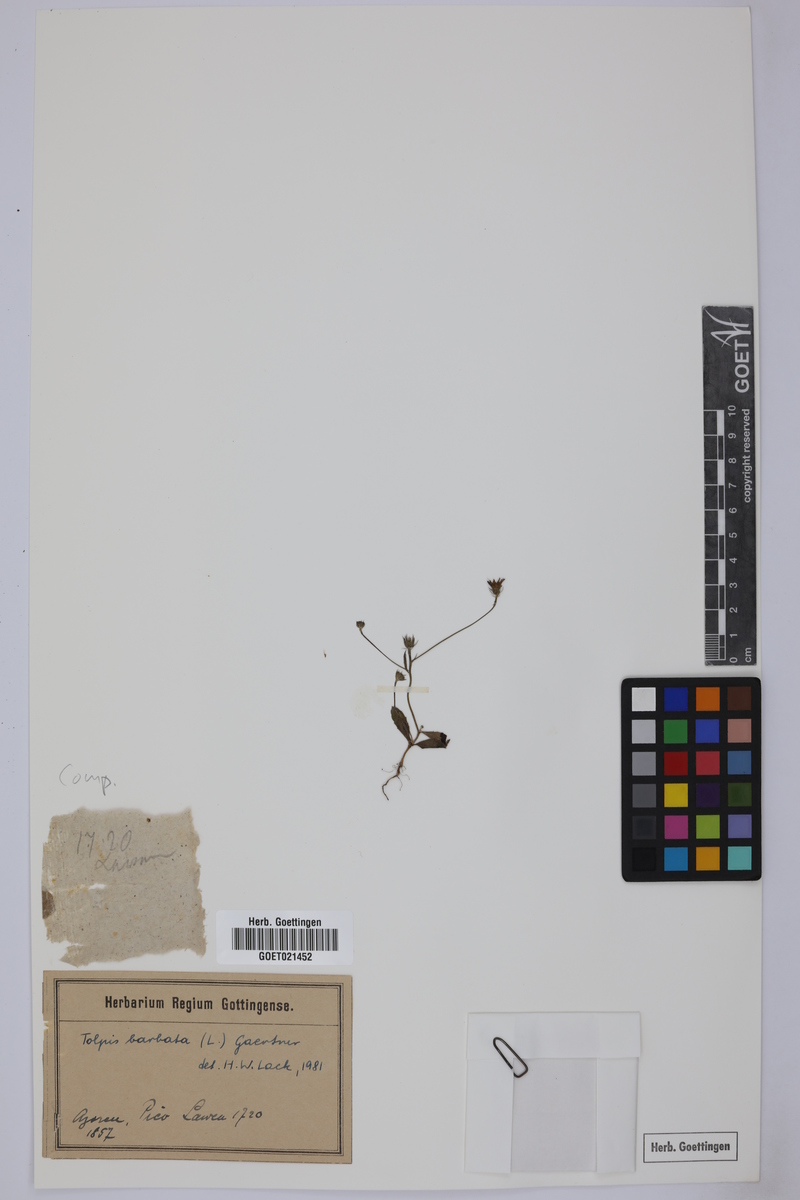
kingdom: Plantae
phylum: Tracheophyta
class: Magnoliopsida
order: Asterales
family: Asteraceae
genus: Tolpis
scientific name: Tolpis barbata
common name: Yellow hawkweed
